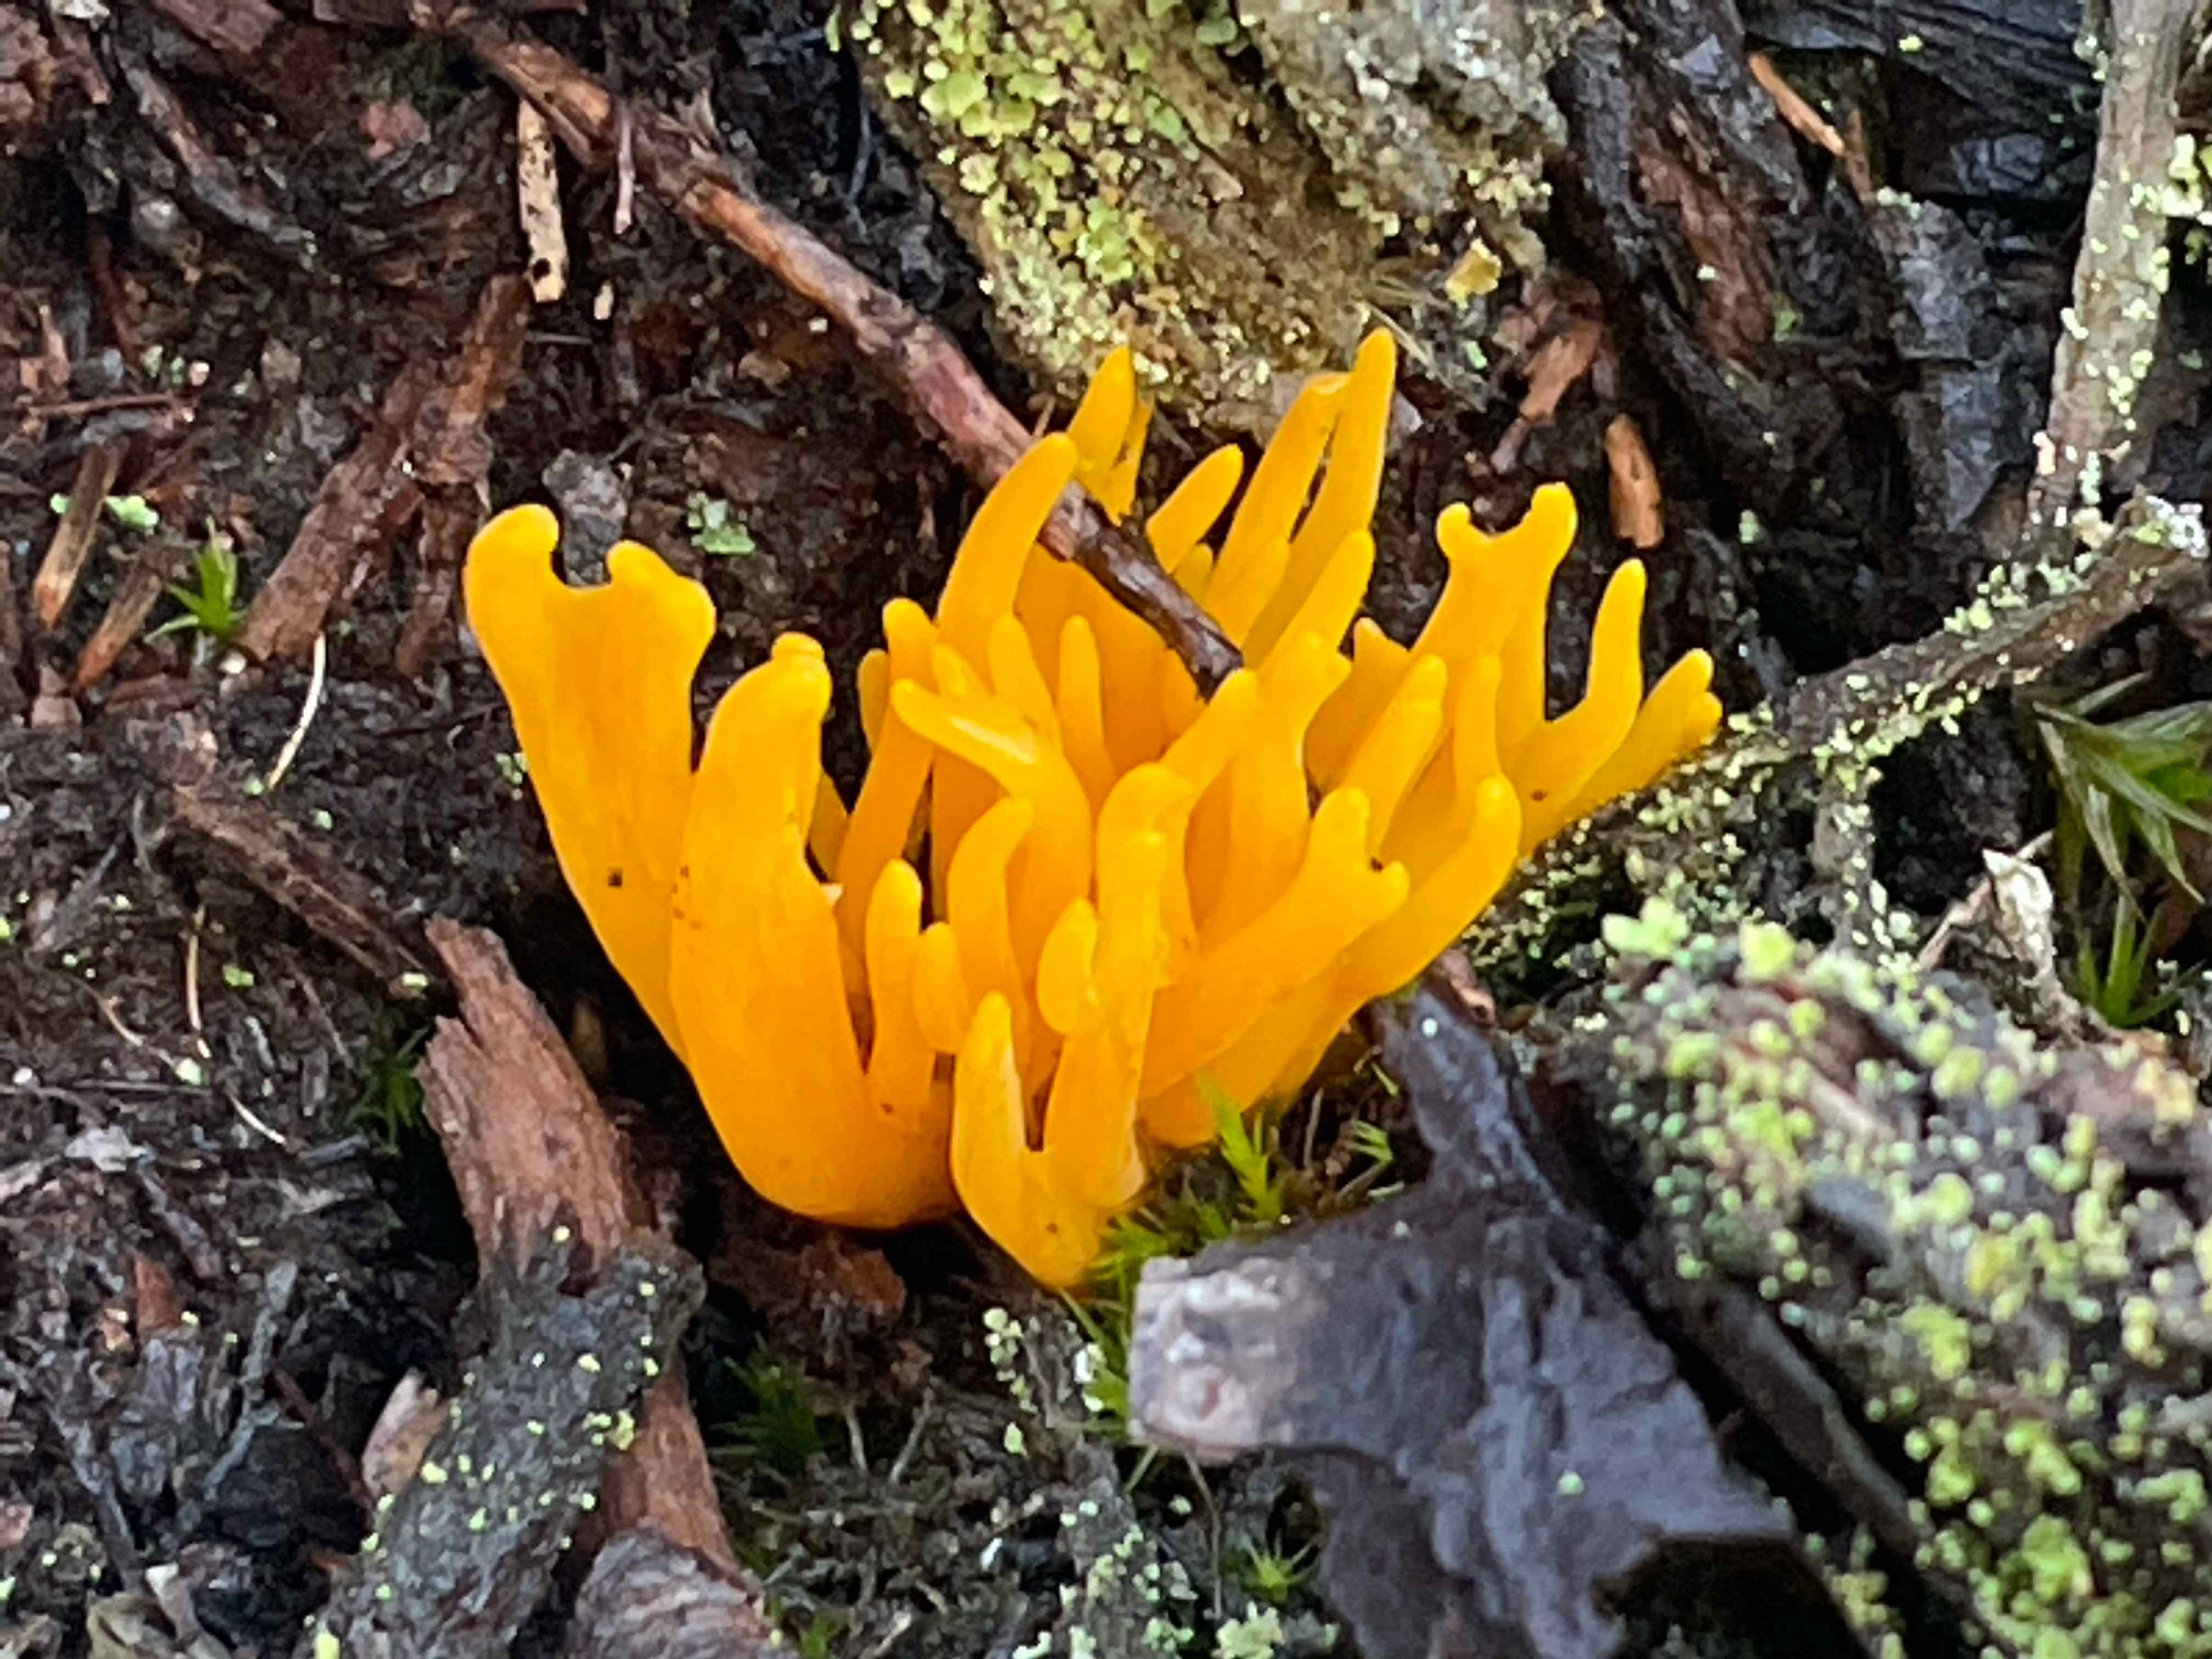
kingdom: Fungi
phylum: Basidiomycota
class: Dacrymycetes
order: Dacrymycetales
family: Dacrymycetaceae
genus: Calocera
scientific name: Calocera viscosa
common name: almindelig guldgaffel
